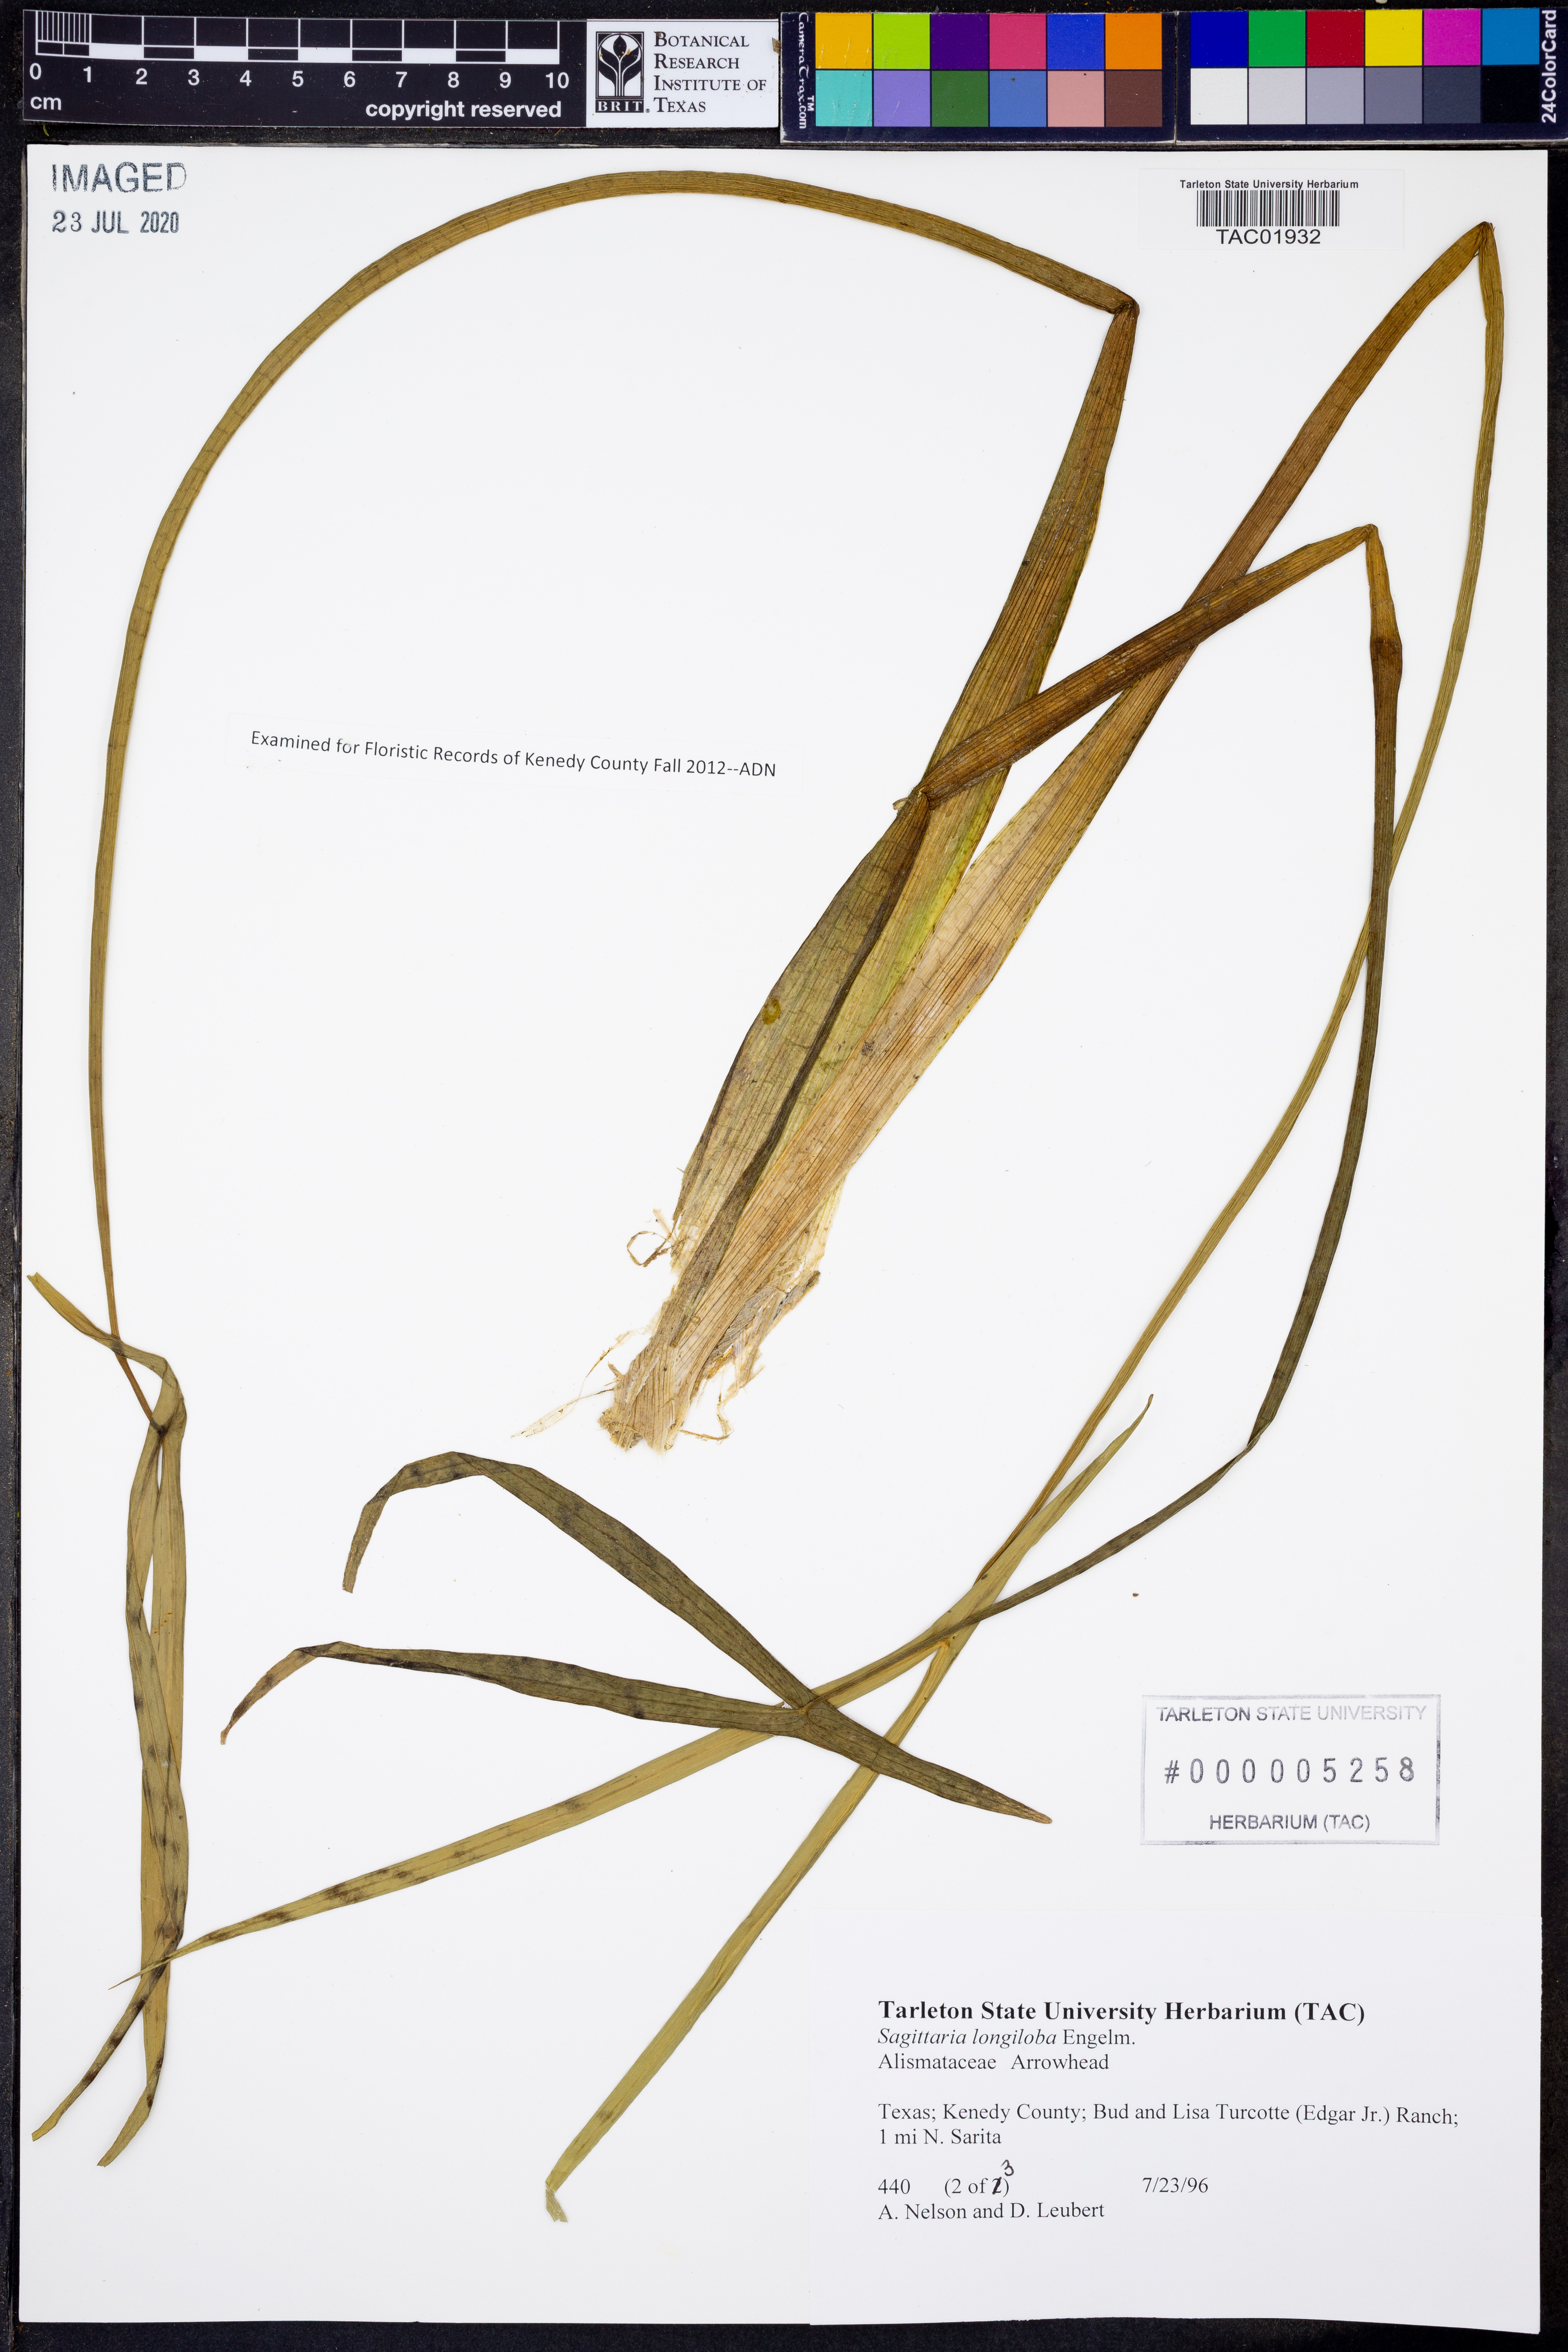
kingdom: Plantae
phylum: Tracheophyta
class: Liliopsida
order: Alismatales
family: Alismataceae
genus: Sagittaria
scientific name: Sagittaria longiloba
